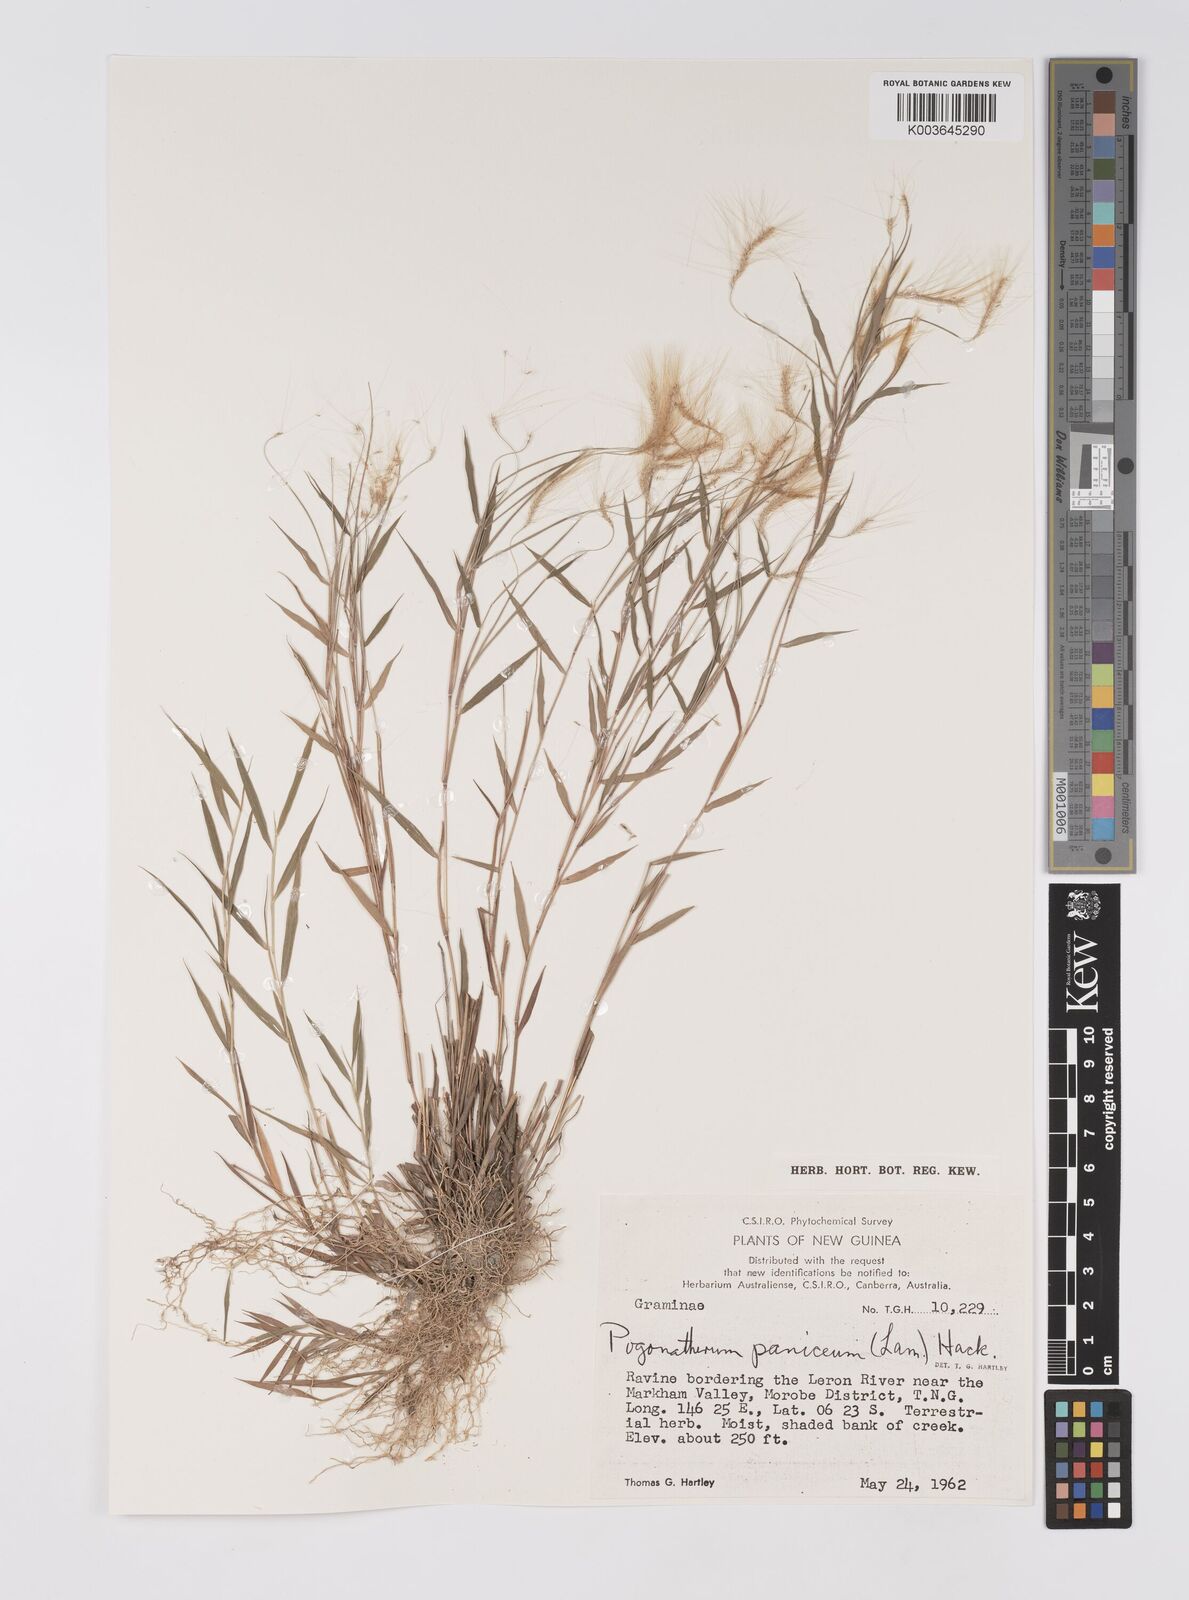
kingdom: Plantae
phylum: Tracheophyta
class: Liliopsida
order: Poales
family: Poaceae
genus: Pogonatherum
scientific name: Pogonatherum paniceum
